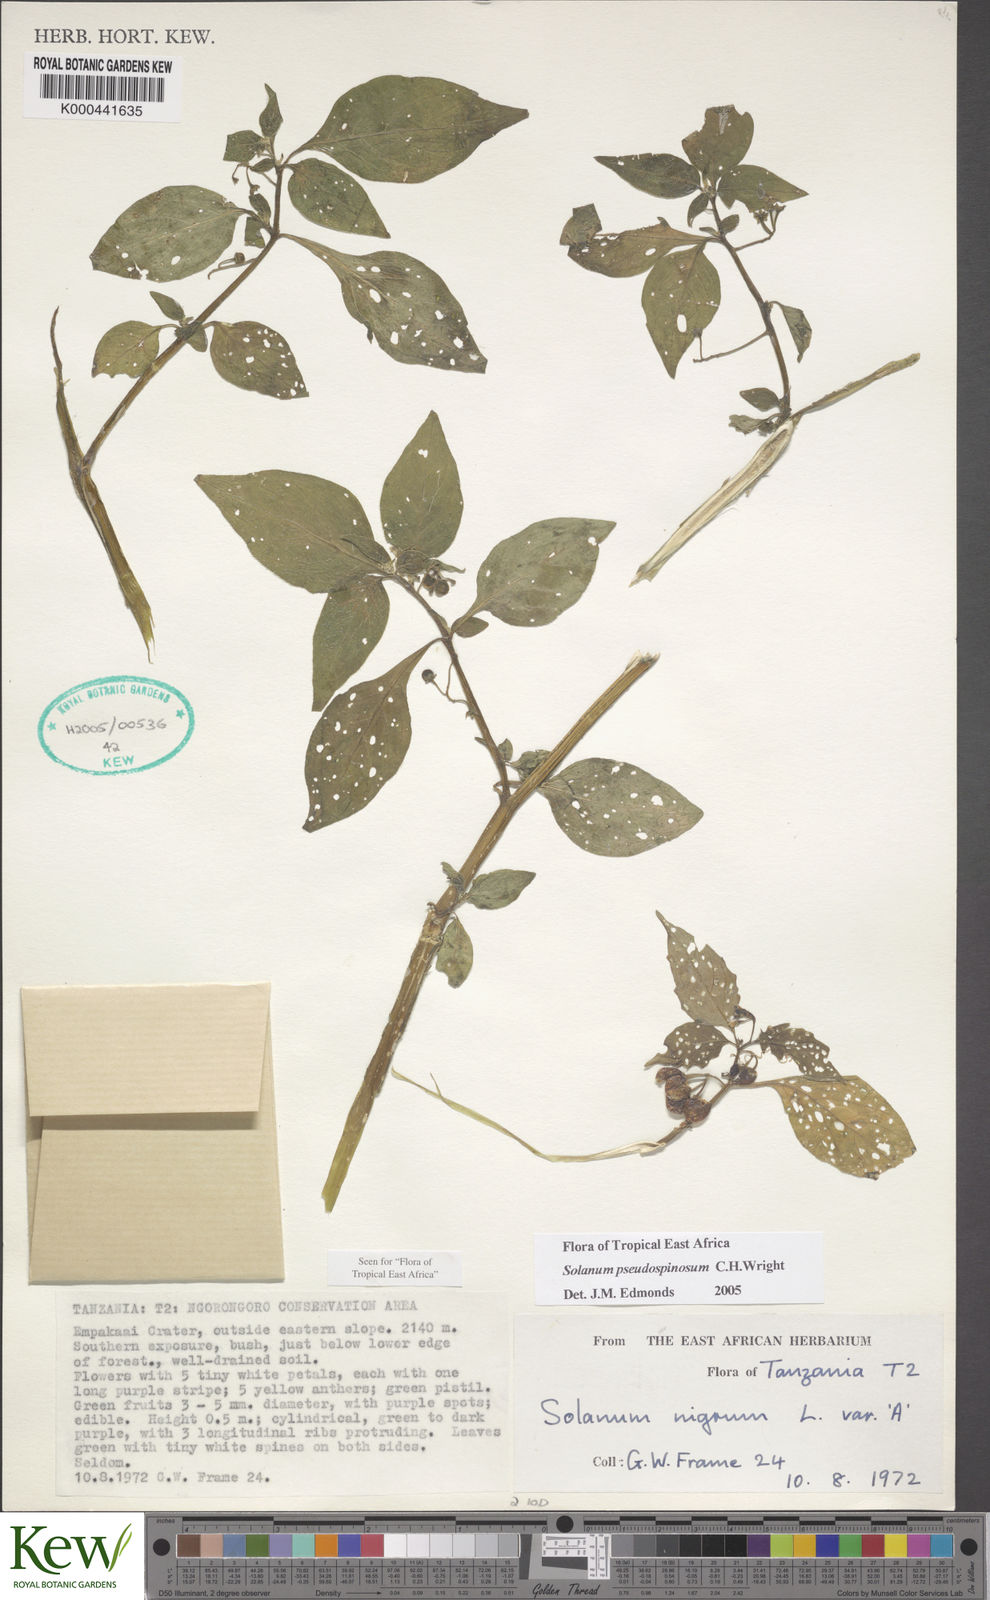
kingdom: Plantae
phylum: Tracheophyta
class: Magnoliopsida
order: Solanales
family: Solanaceae
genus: Solanum
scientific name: Solanum pseudospinosum
